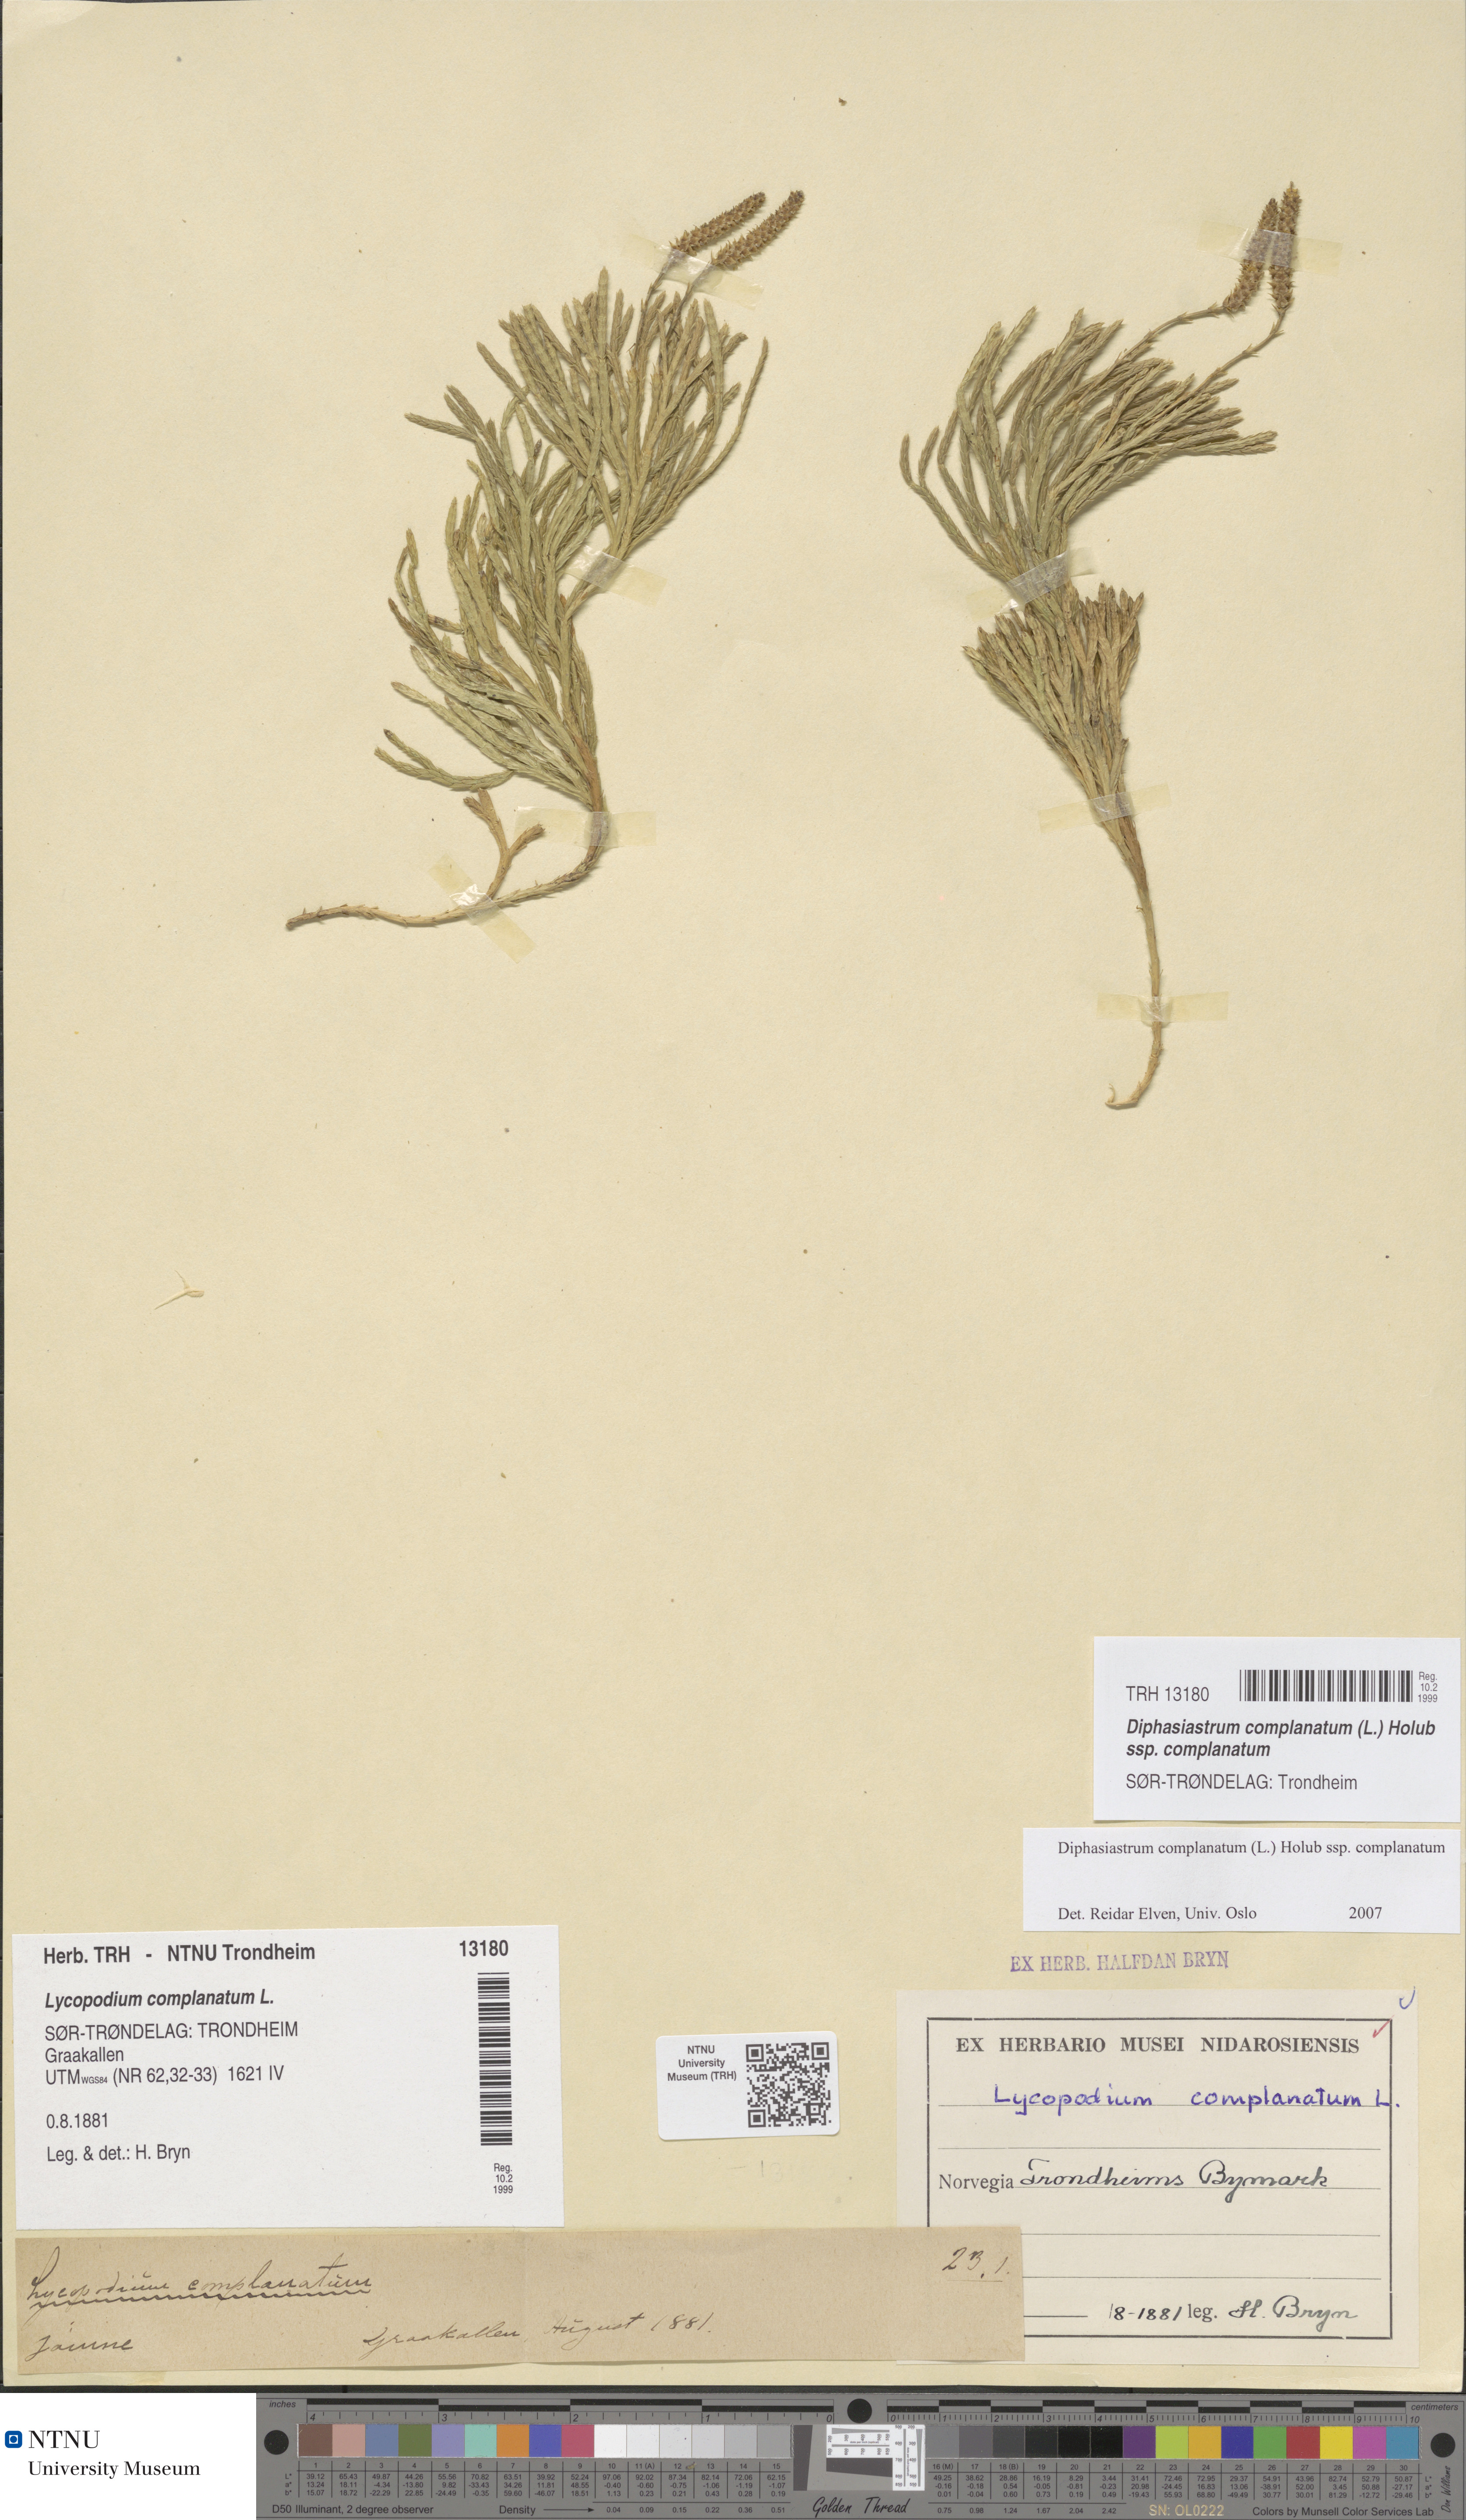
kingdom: Plantae
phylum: Tracheophyta
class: Lycopodiopsida
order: Lycopodiales
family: Lycopodiaceae
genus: Diphasiastrum
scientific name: Diphasiastrum complanatum
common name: Northern running-pine
